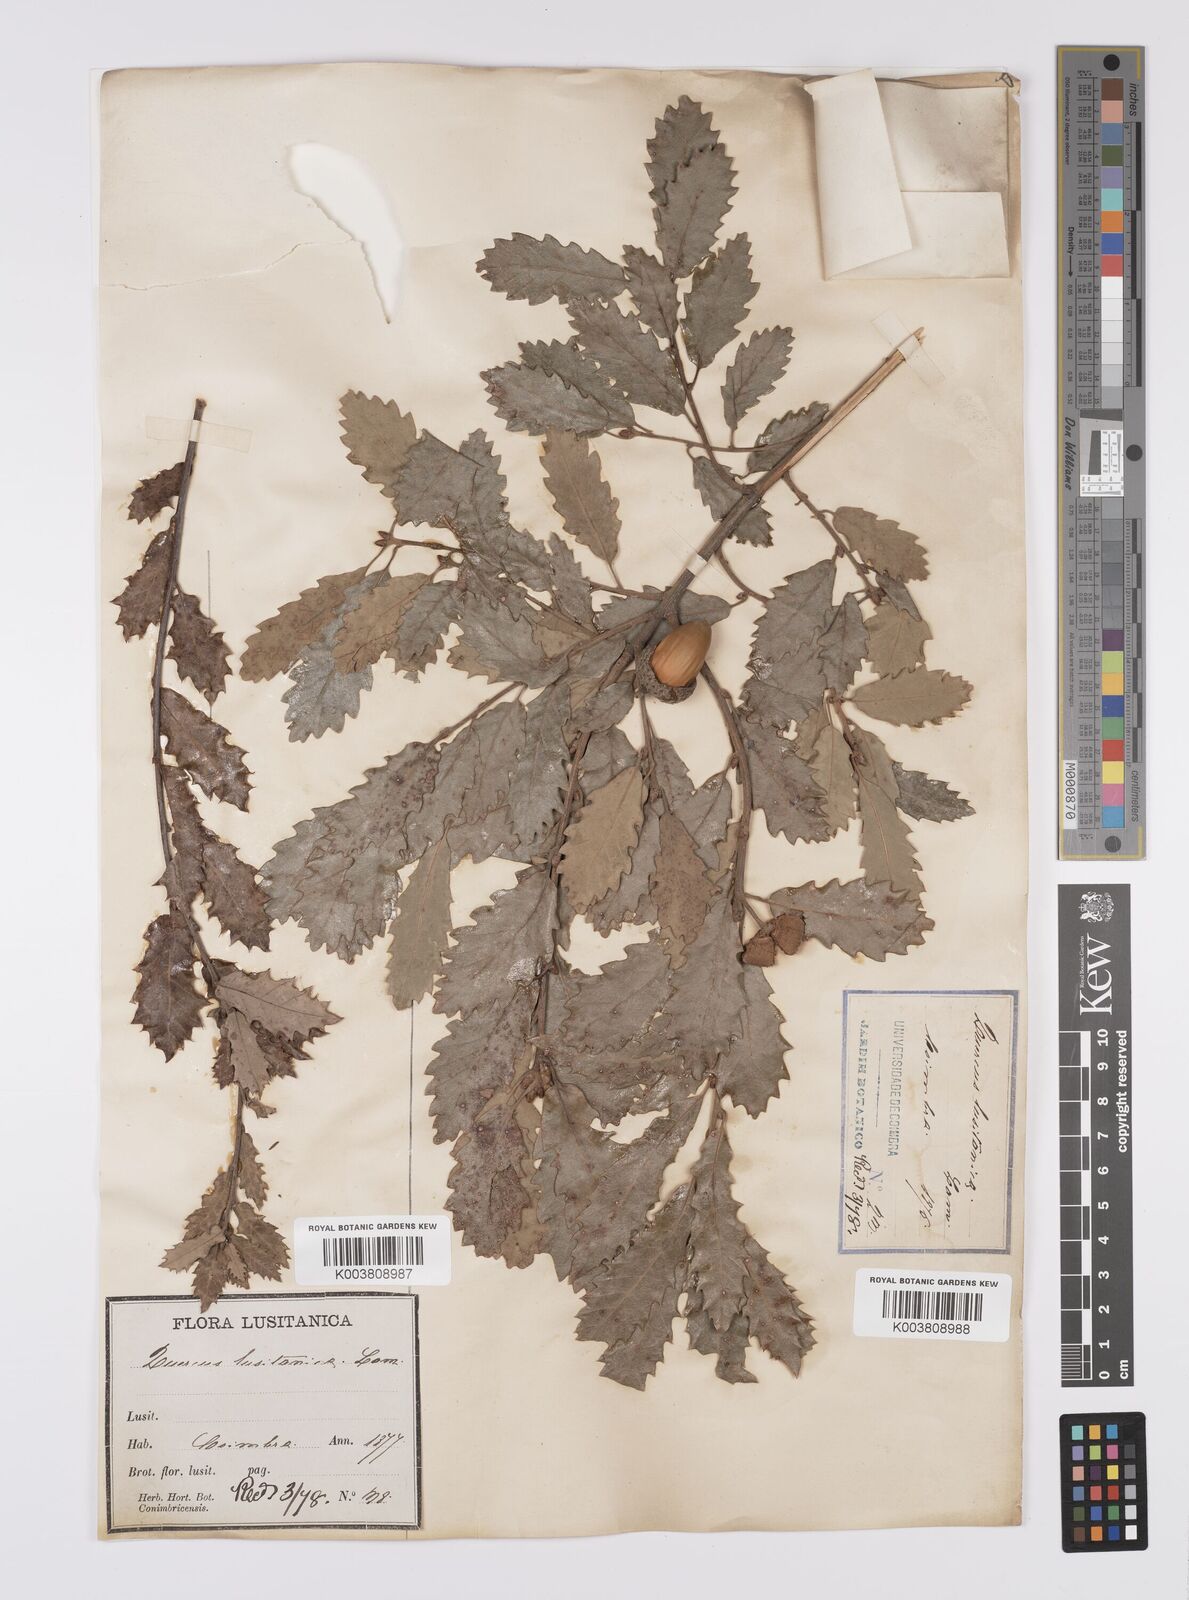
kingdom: Plantae
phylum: Tracheophyta
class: Magnoliopsida
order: Fagales
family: Fagaceae
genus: Quercus
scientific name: Quercus faginea
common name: Gall oak tree
